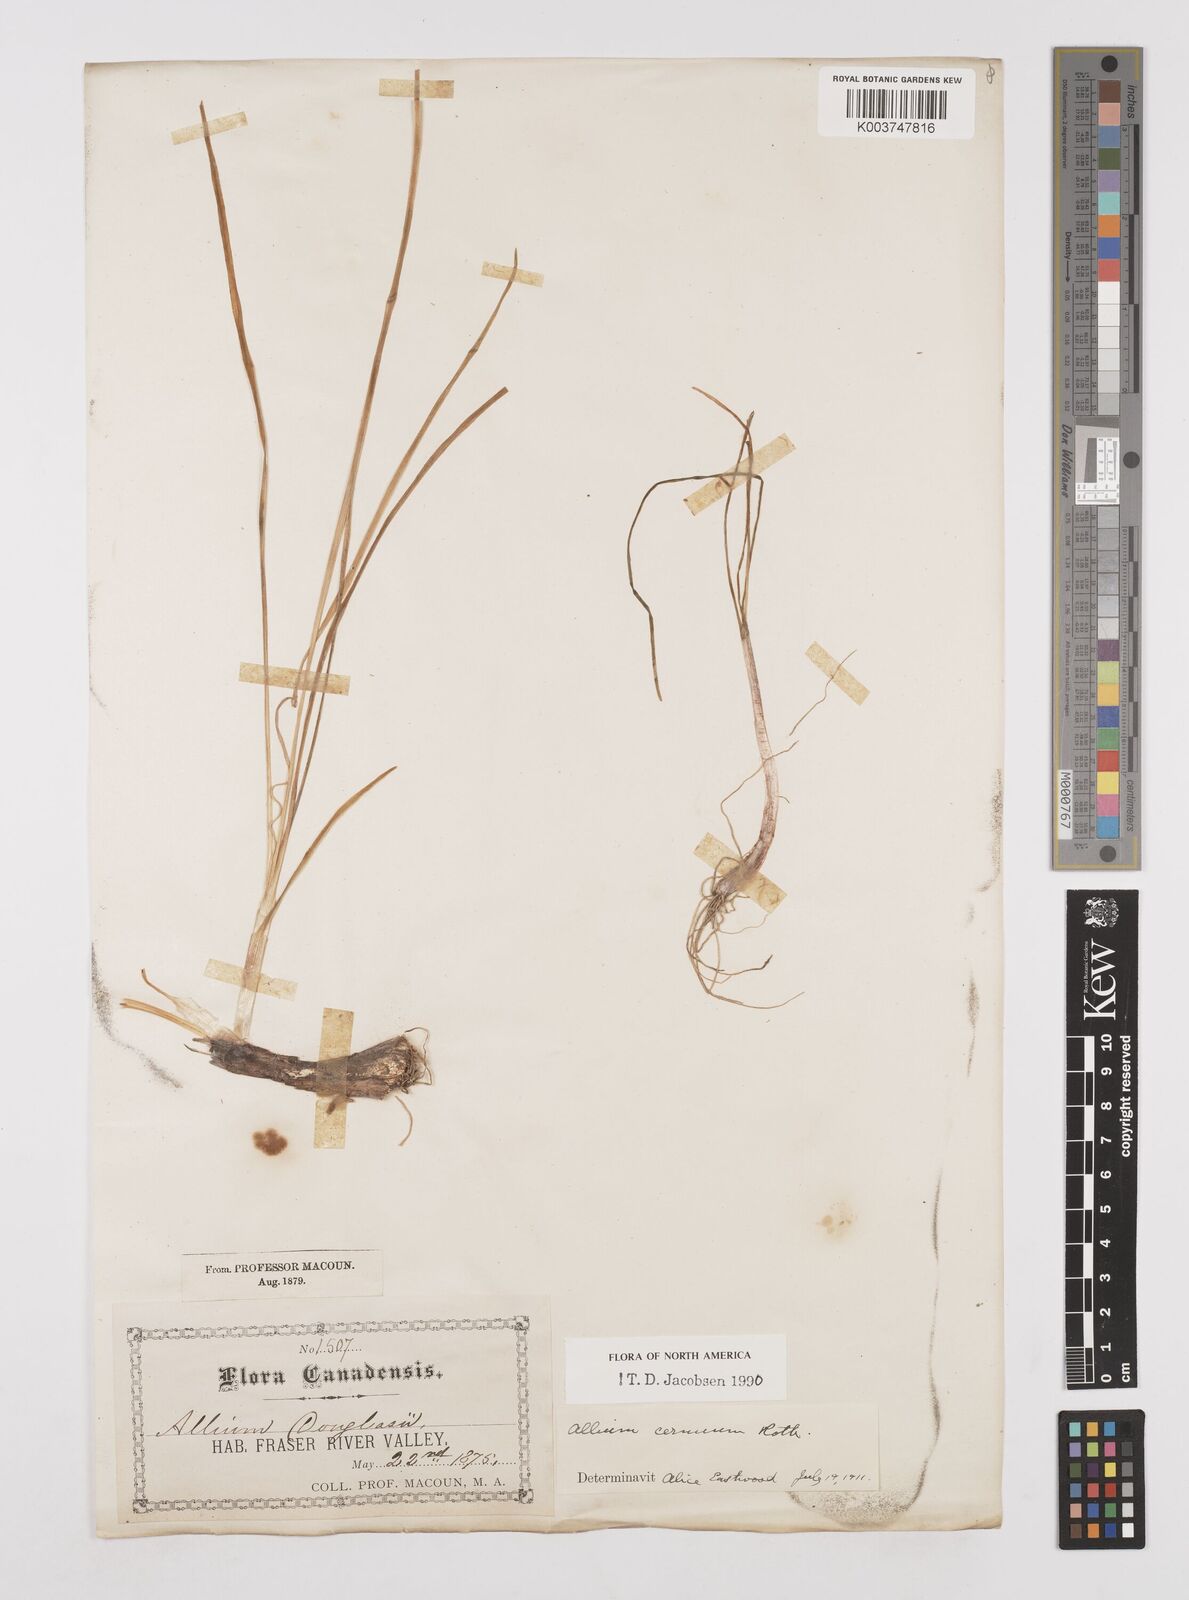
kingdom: Plantae
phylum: Tracheophyta
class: Liliopsida
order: Asparagales
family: Amaryllidaceae
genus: Allium
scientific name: Allium cernuum
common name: Nodding onion
